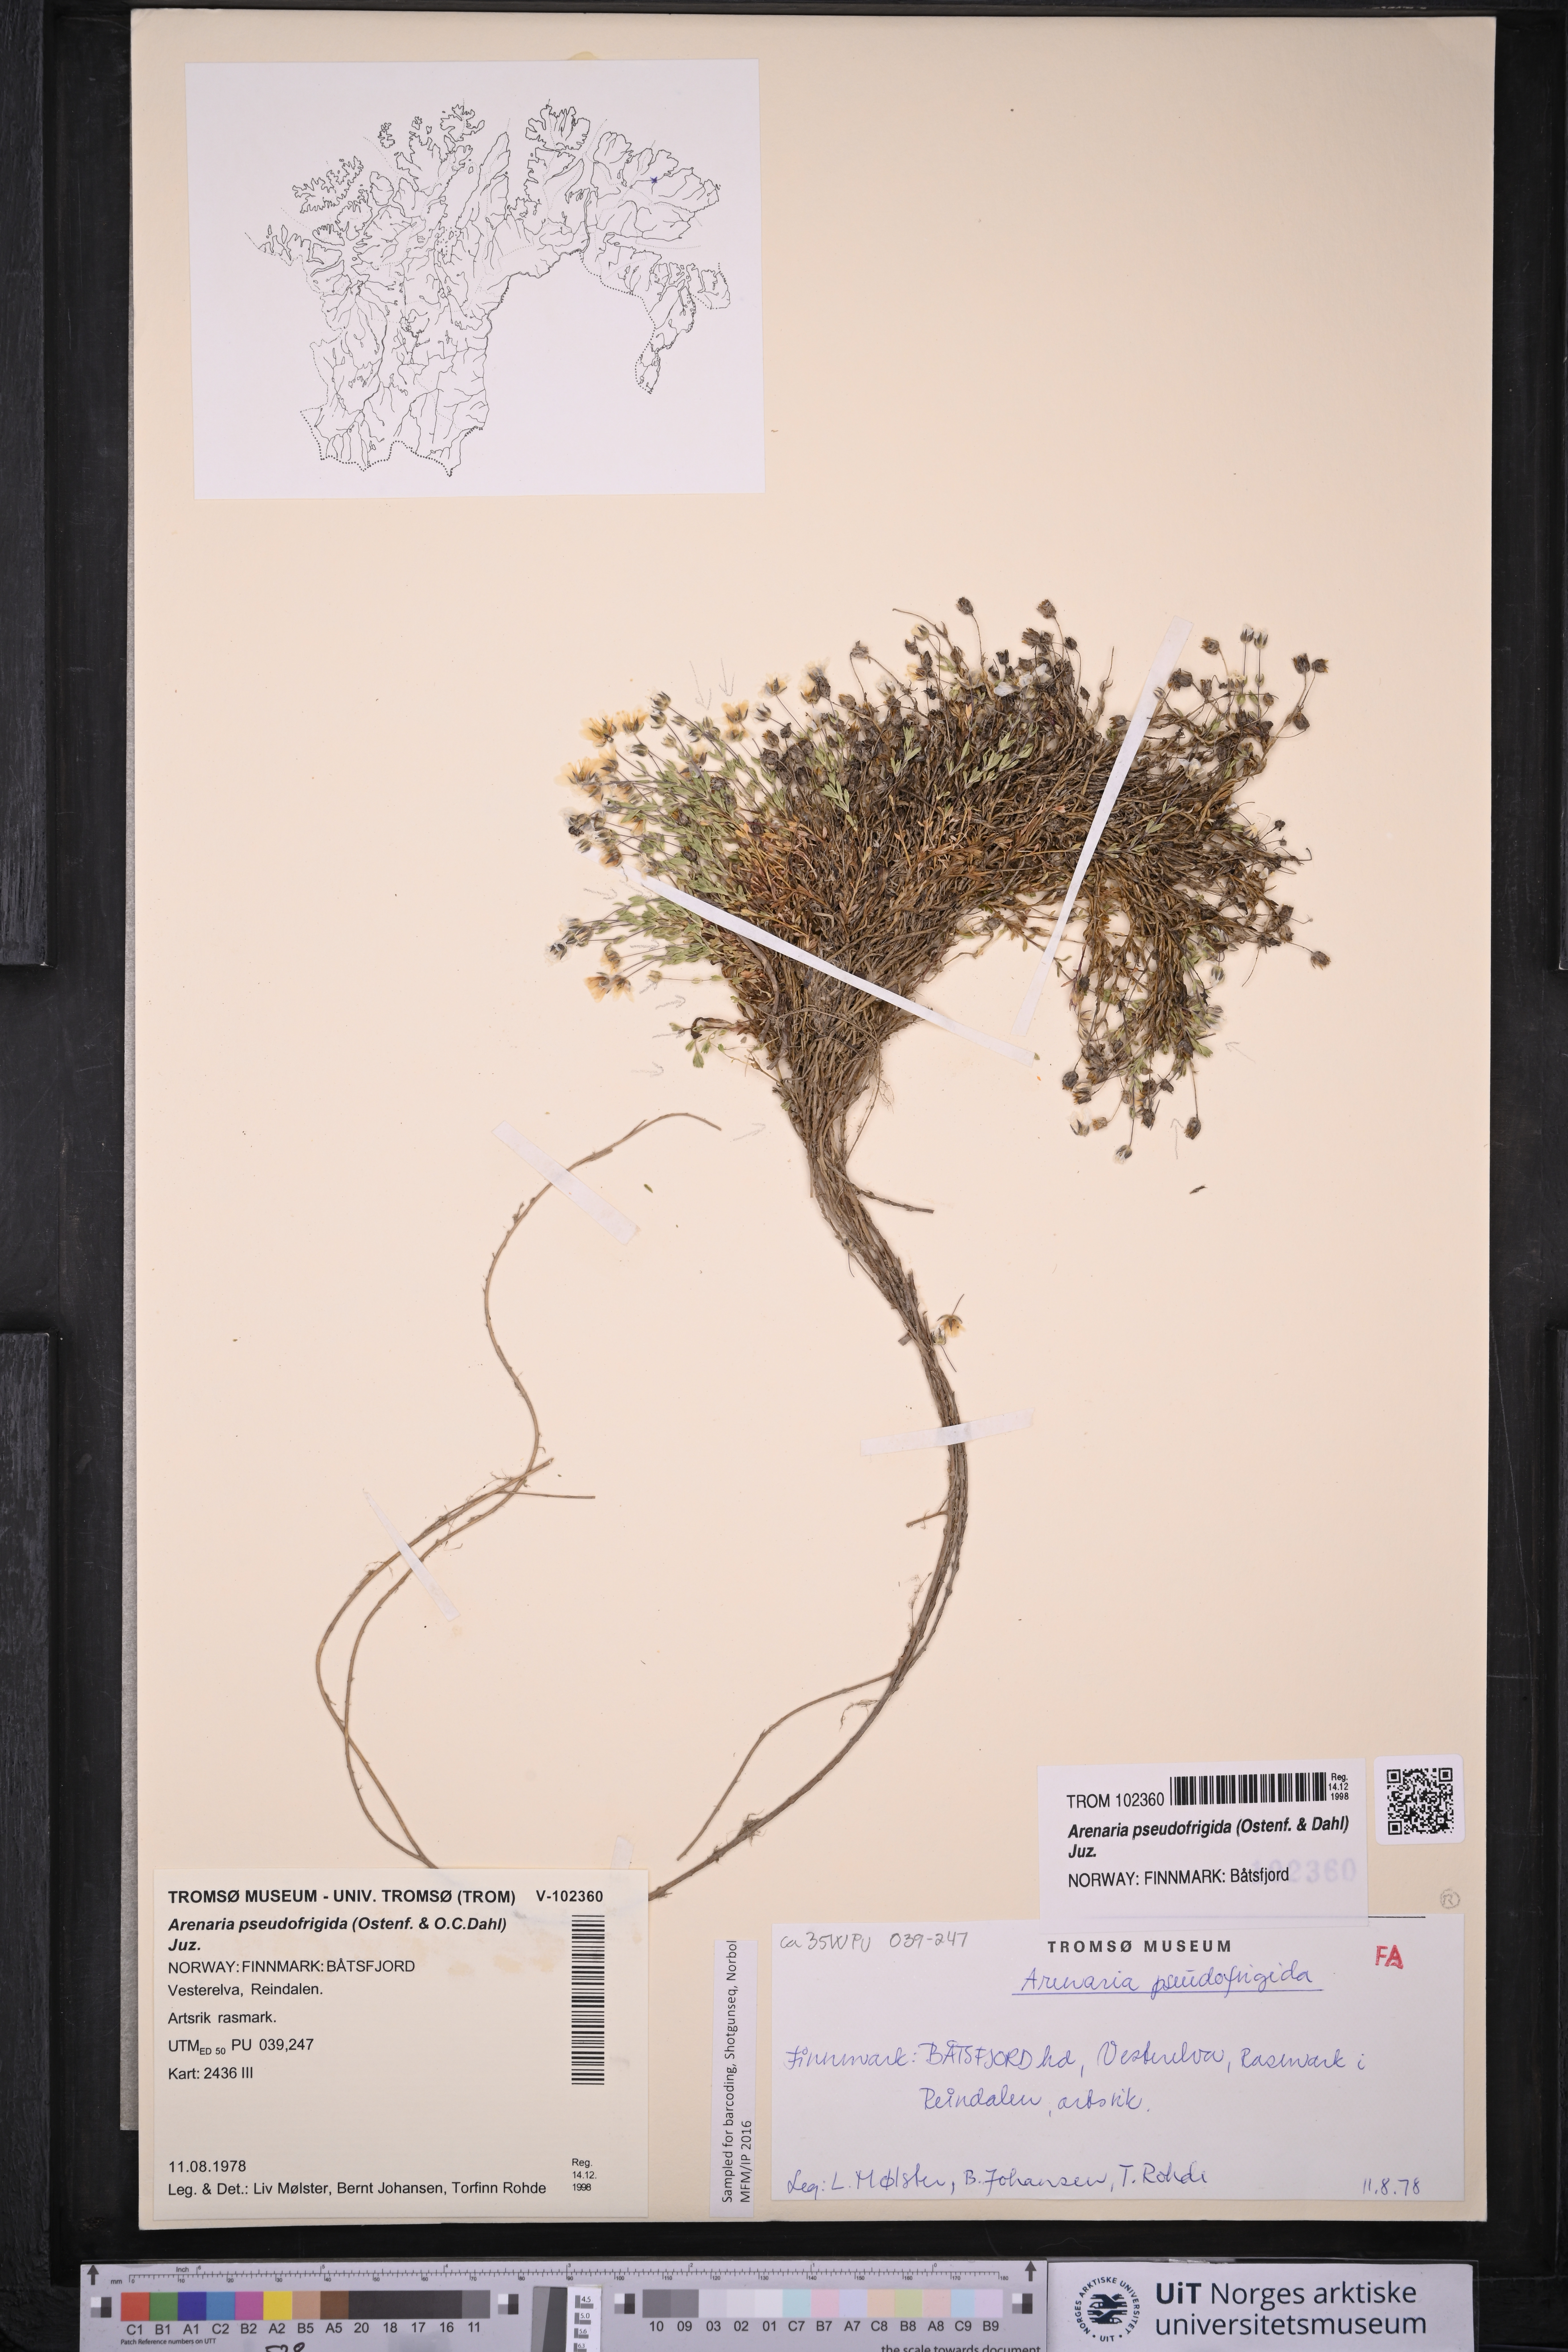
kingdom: Plantae
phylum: Tracheophyta
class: Magnoliopsida
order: Caryophyllales
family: Caryophyllaceae
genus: Arenaria
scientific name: Arenaria pseudofrigida
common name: Tundra sandwort
